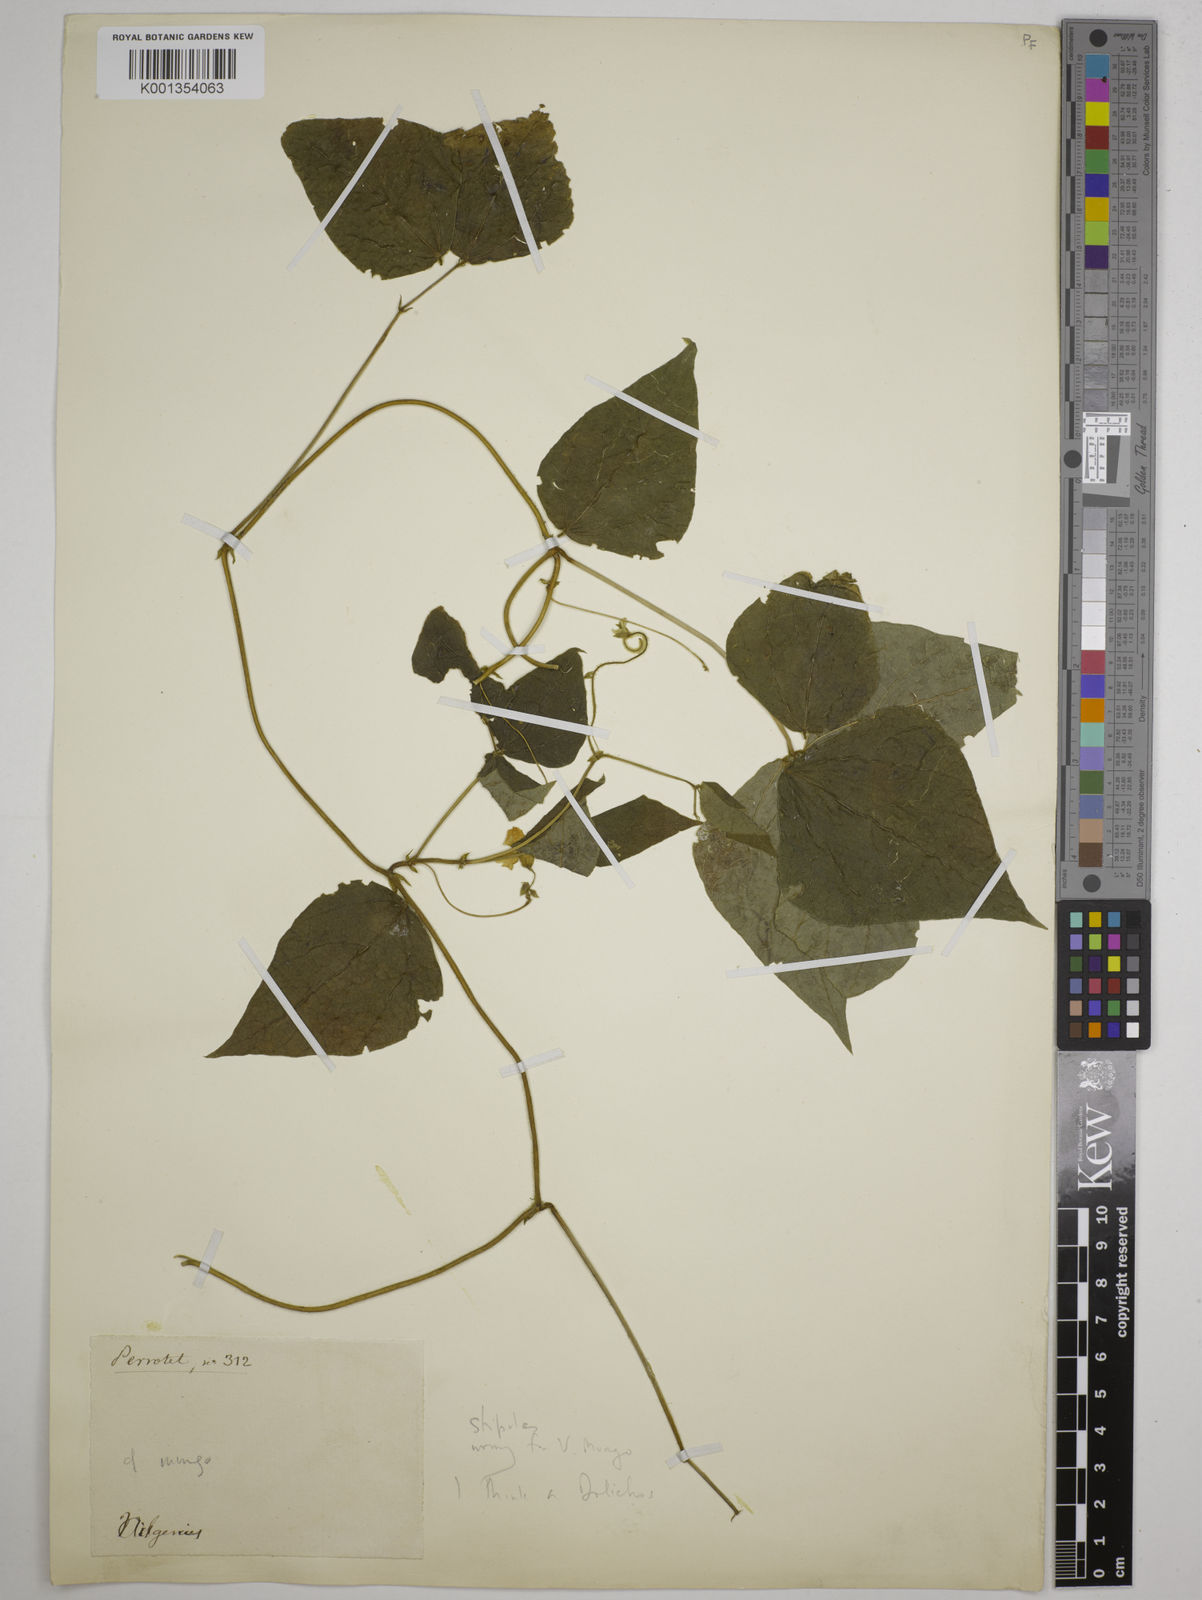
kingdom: Plantae
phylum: Tracheophyta
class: Magnoliopsida
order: Fabales
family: Fabaceae
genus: Dolichos
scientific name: Dolichos
